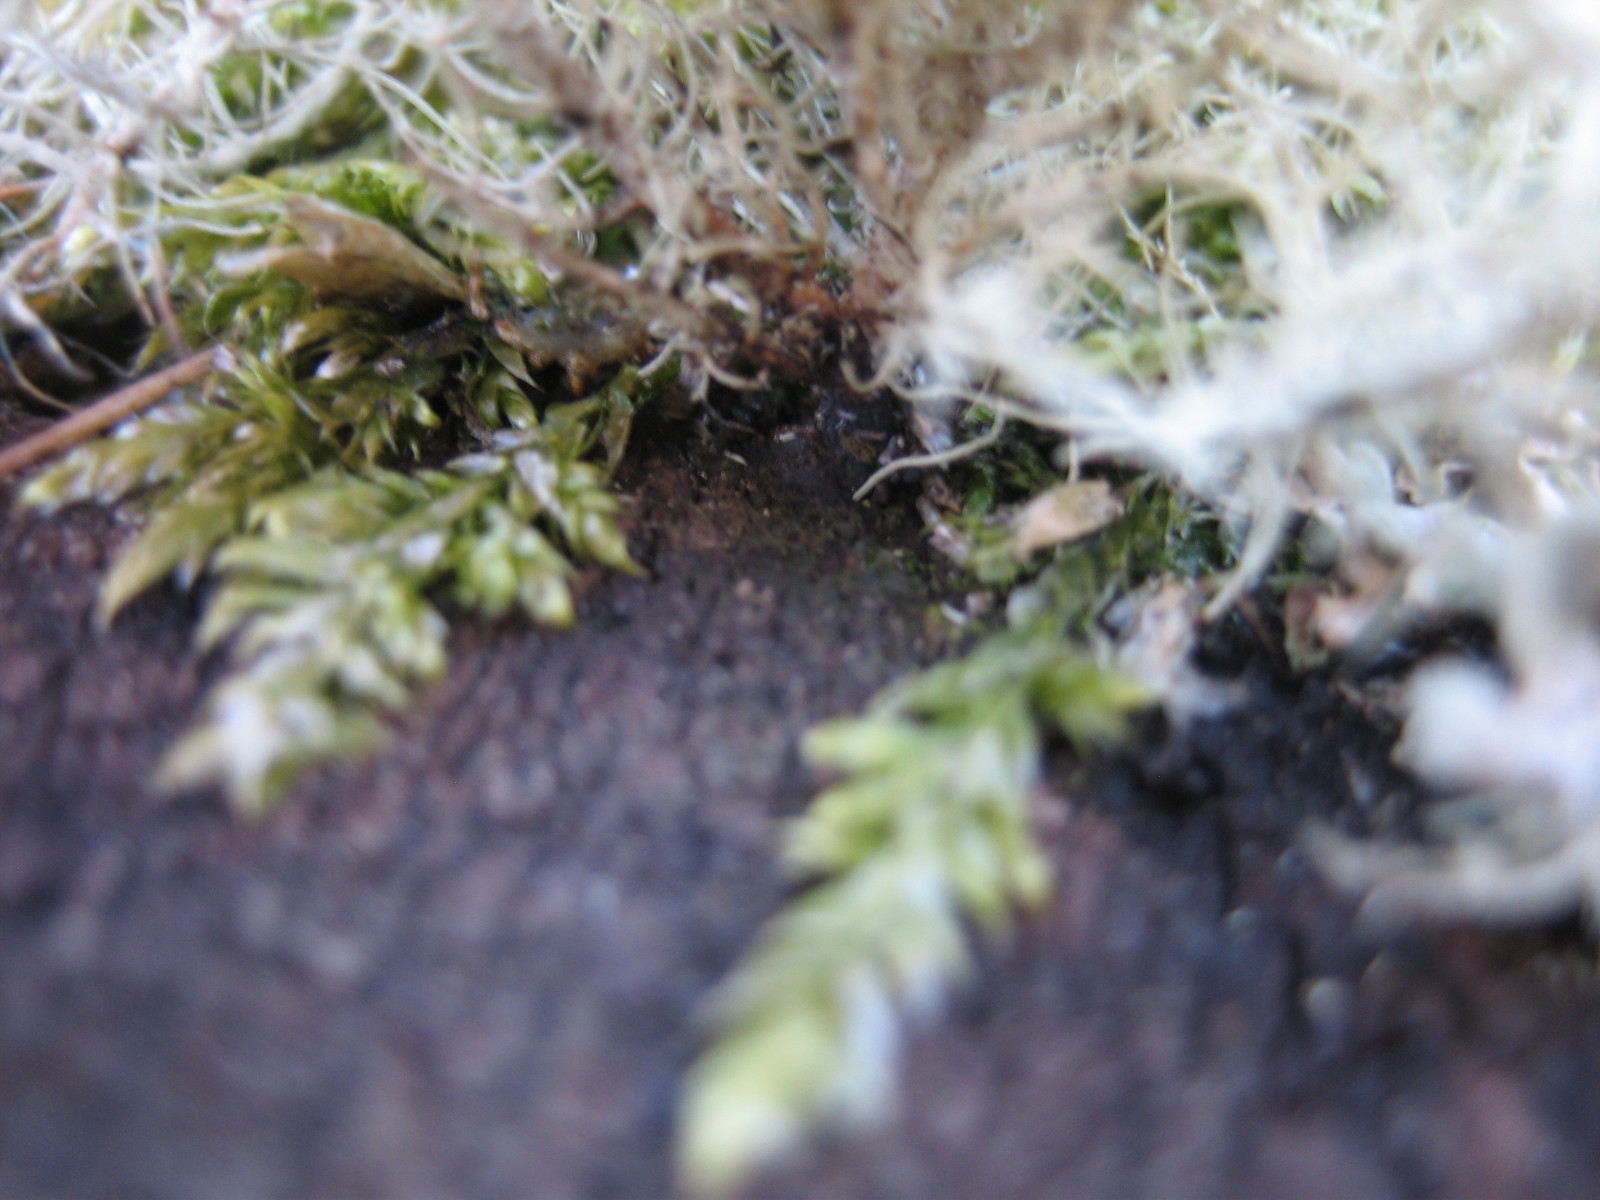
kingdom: Fungi
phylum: Ascomycota
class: Lecanoromycetes
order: Lecanorales
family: Parmeliaceae
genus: Usnea
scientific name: Usnea subfloridana
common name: busket skæglav
